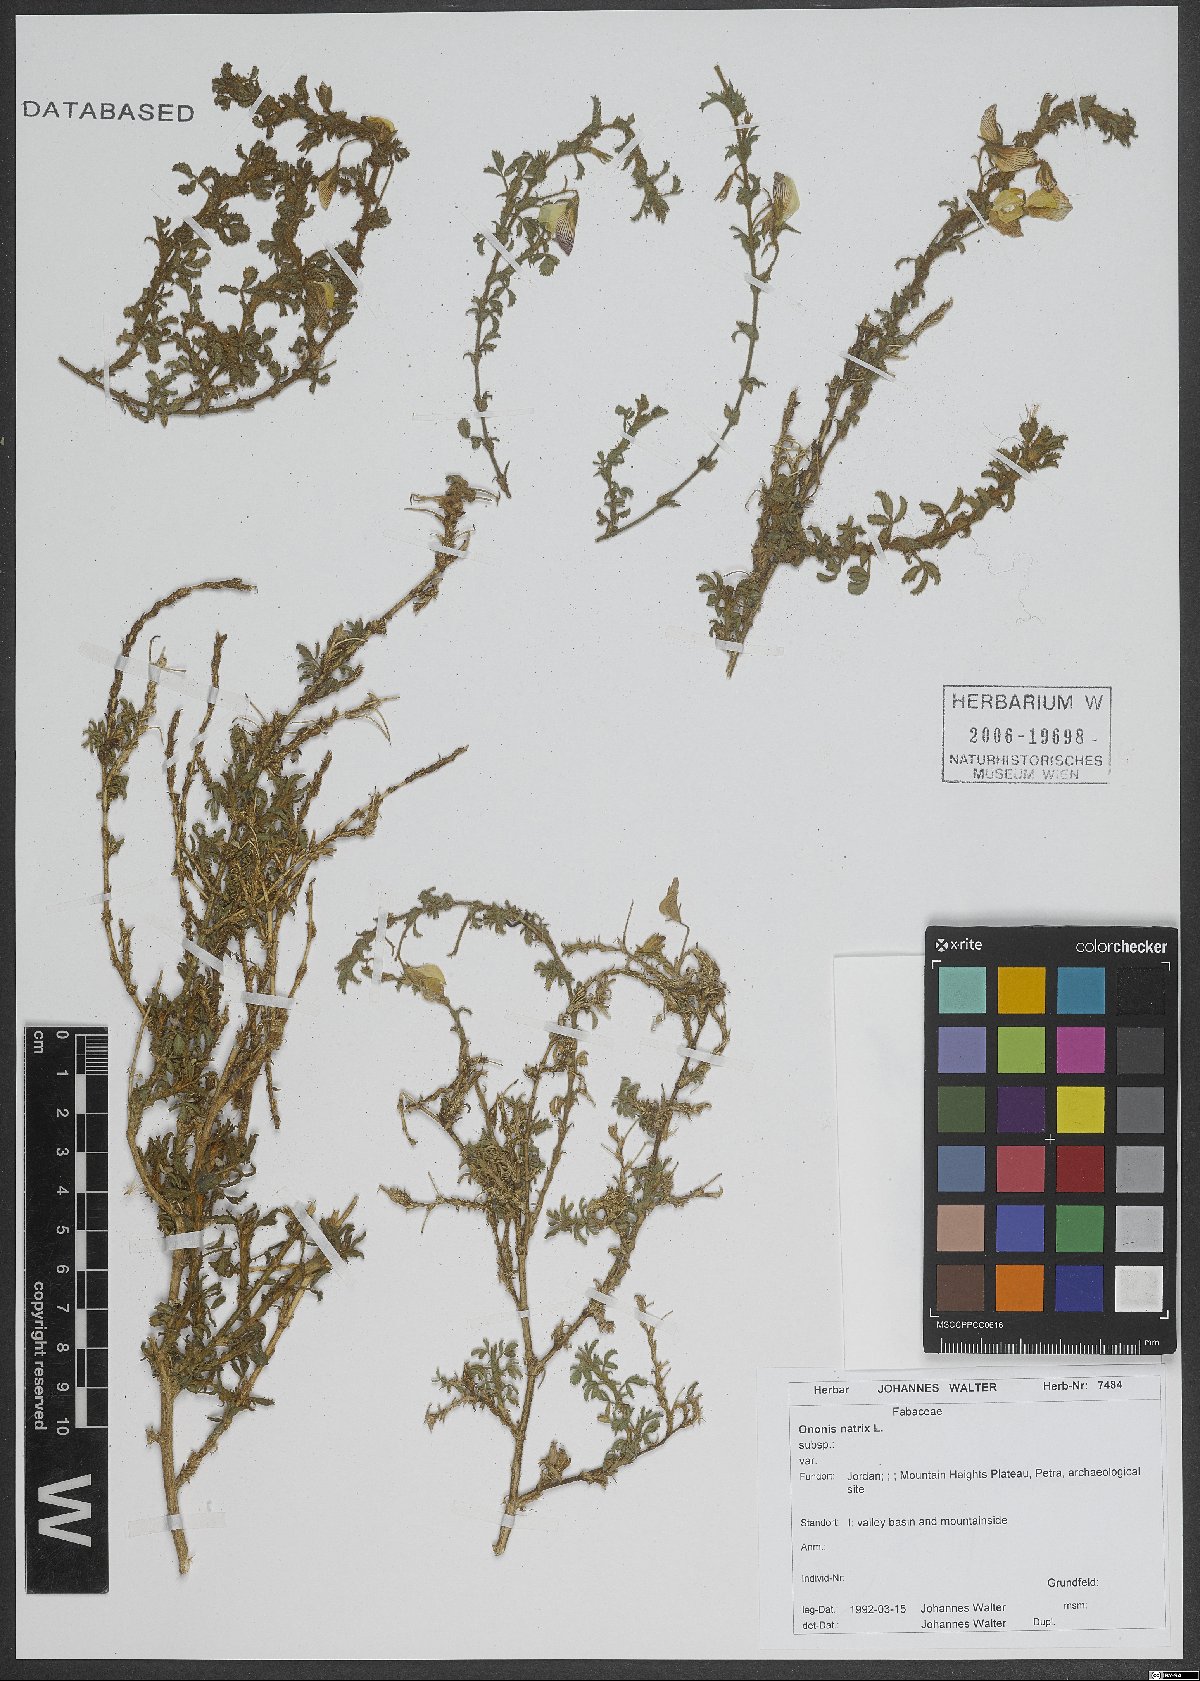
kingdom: Plantae
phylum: Tracheophyta
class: Magnoliopsida
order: Fabales
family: Fabaceae
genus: Ononis
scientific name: Ononis natrix
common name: Yellow restharrow
